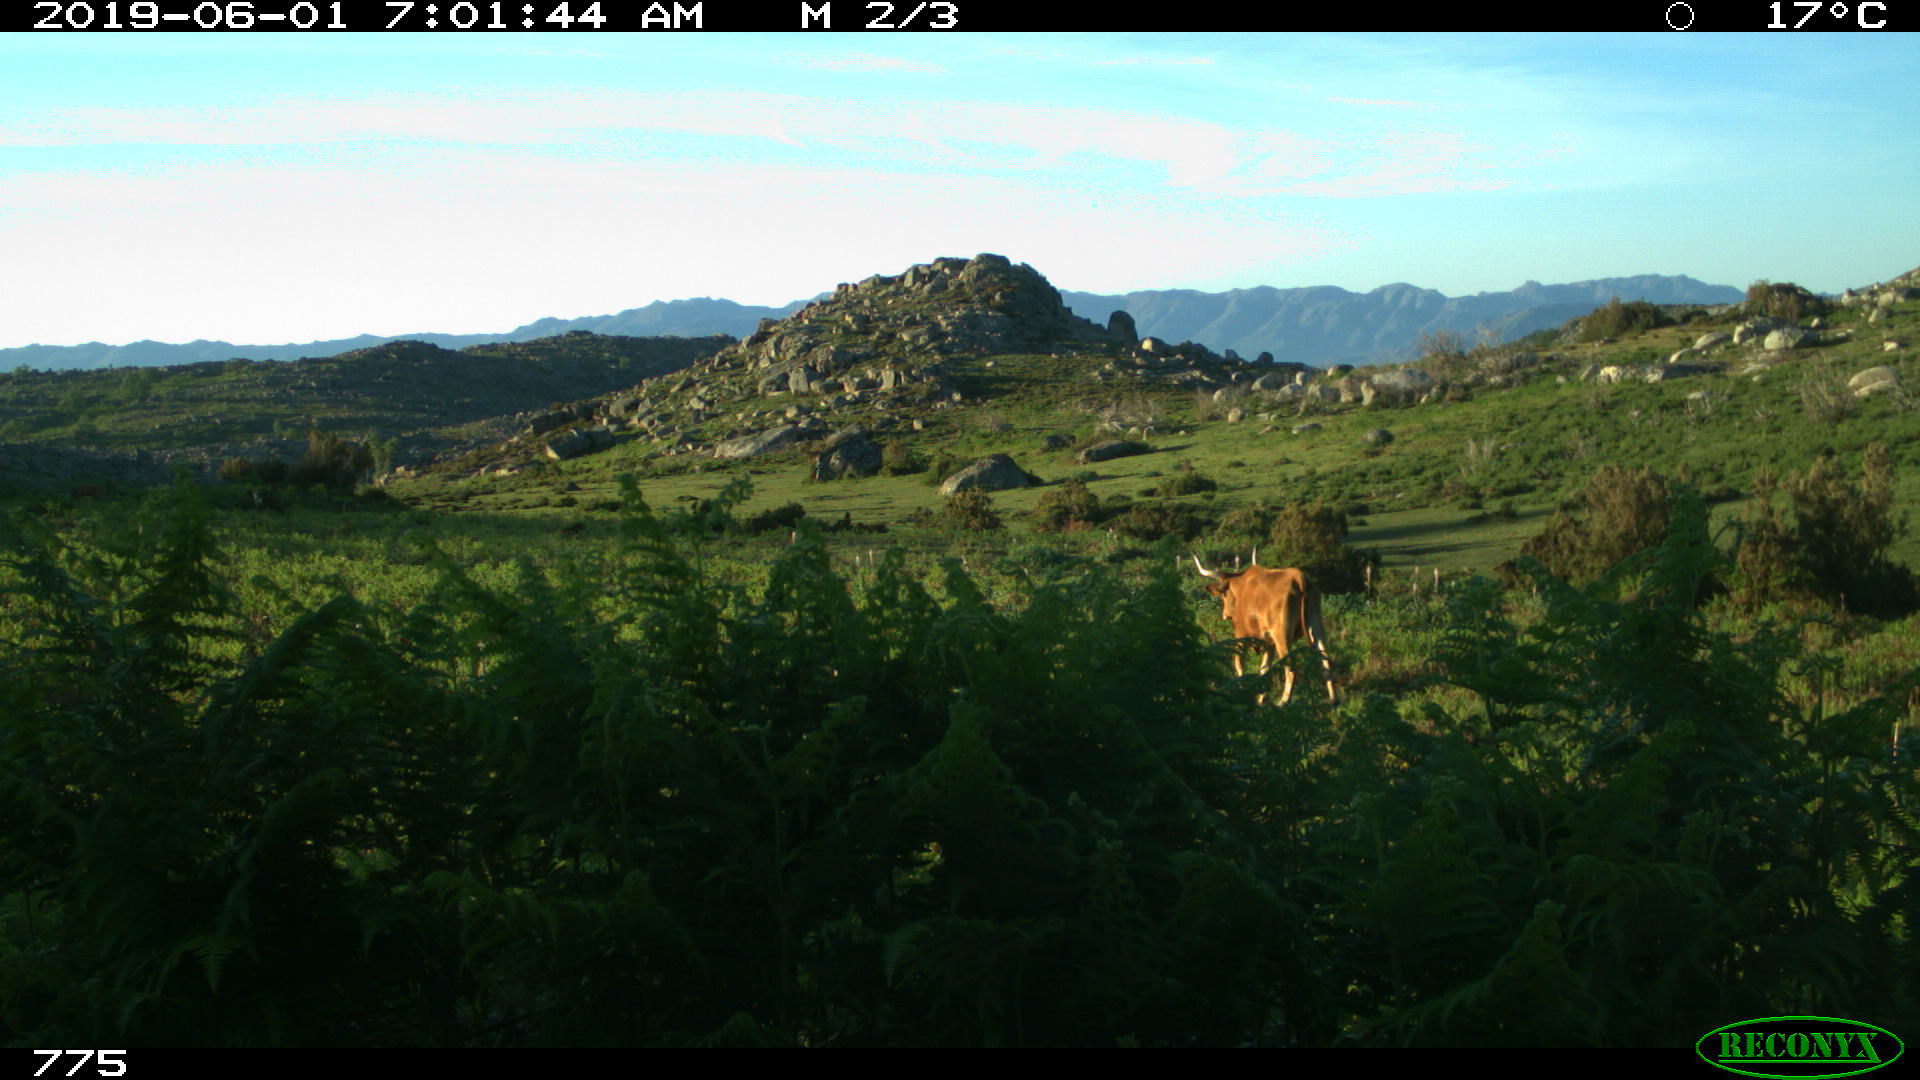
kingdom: Animalia
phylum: Chordata
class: Mammalia
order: Artiodactyla
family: Bovidae
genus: Bos
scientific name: Bos taurus
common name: Domesticated cattle
